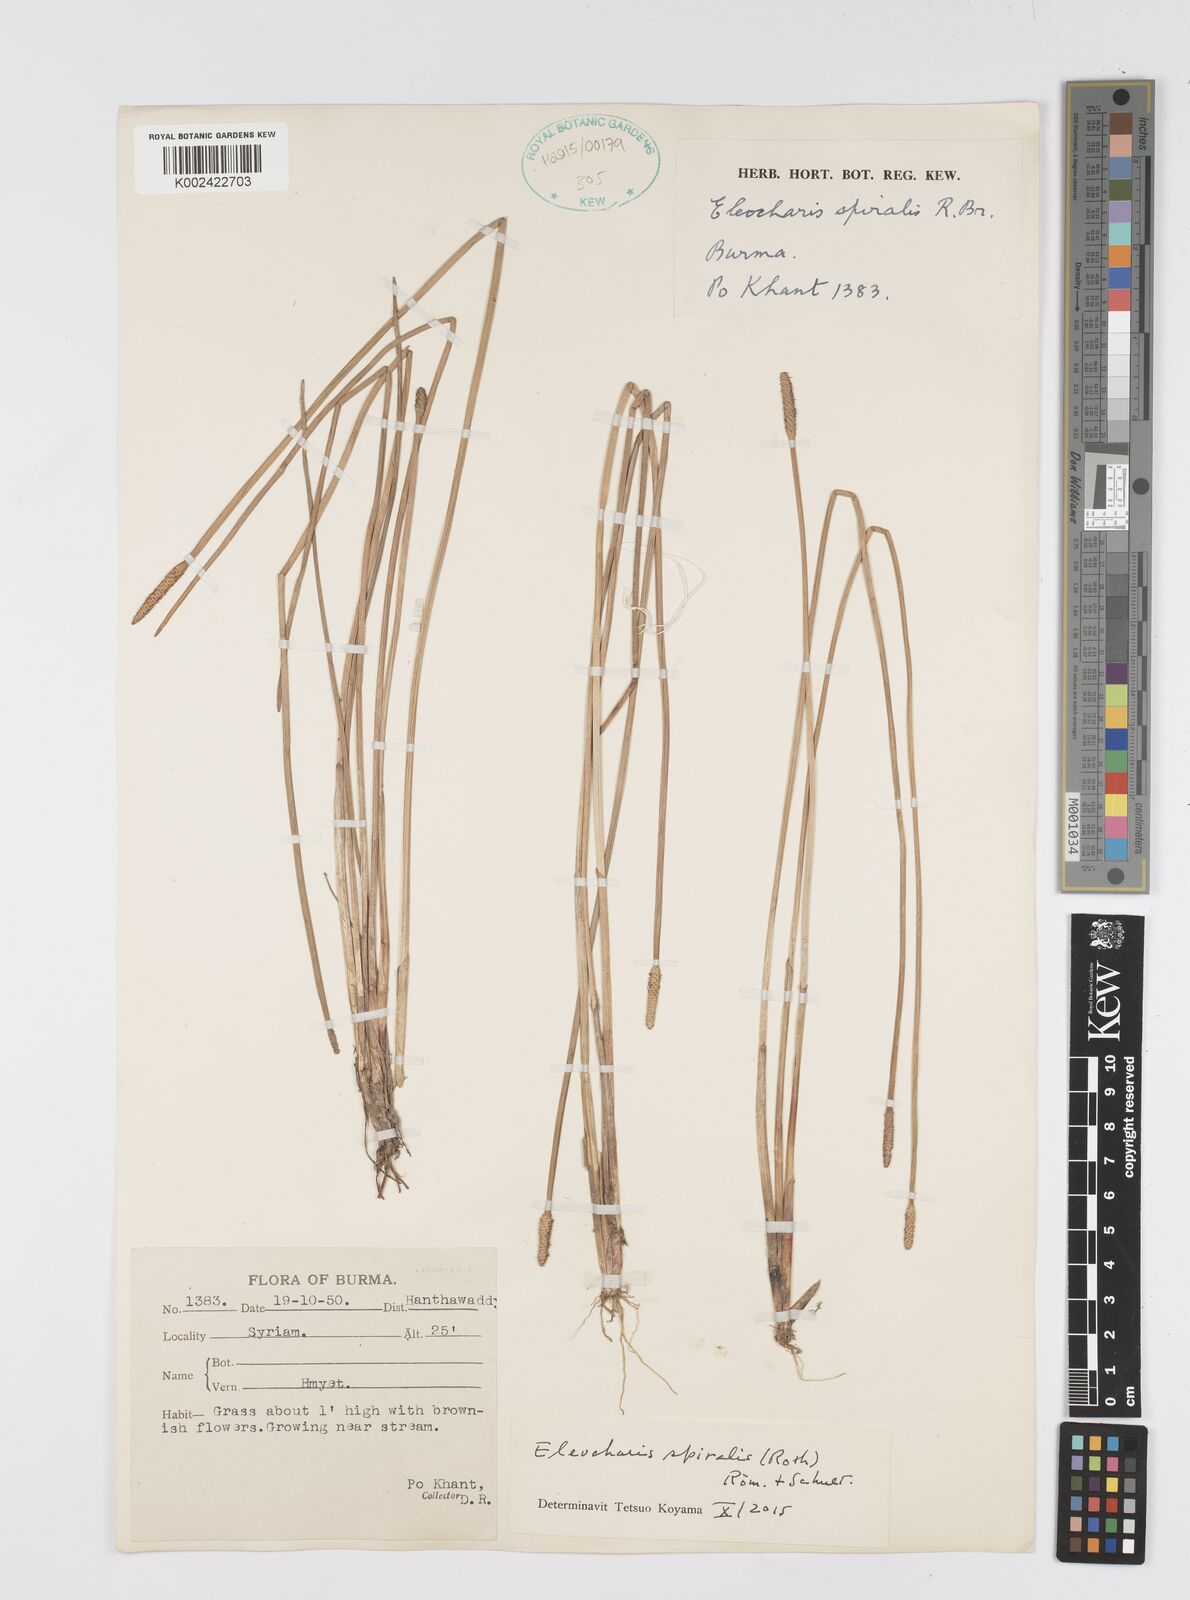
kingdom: Plantae
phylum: Tracheophyta
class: Liliopsida
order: Poales
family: Cyperaceae
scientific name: Cyperaceae
